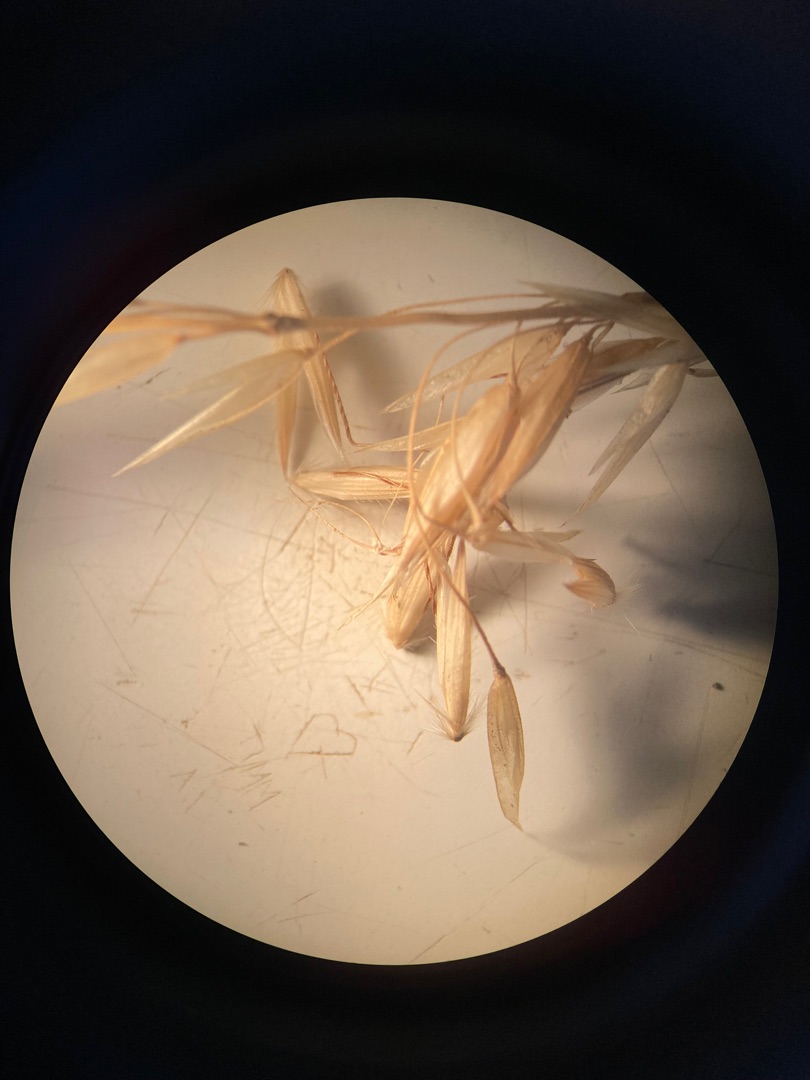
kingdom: Plantae
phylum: Tracheophyta
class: Liliopsida
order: Poales
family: Poaceae
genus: Arrhenatherum
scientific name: Arrhenatherum elatius
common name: Draphavre
